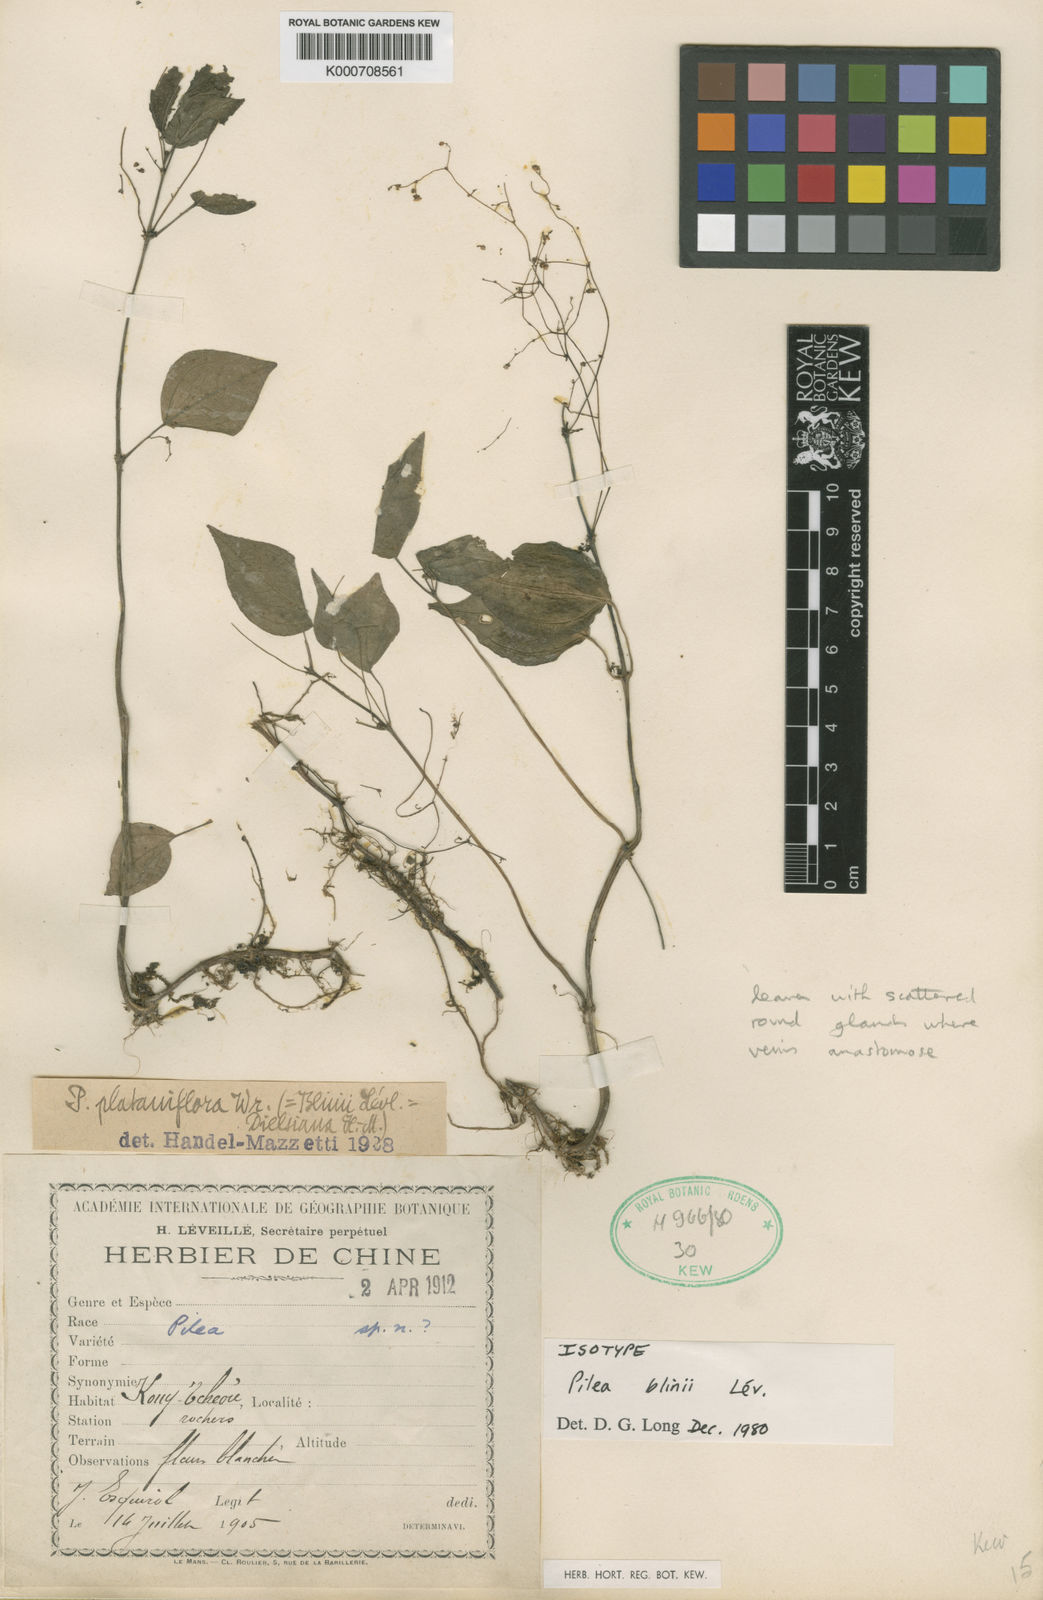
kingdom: Plantae
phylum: Tracheophyta
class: Magnoliopsida
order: Rosales
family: Urticaceae
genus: Pilea
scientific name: Pilea plataniflora
